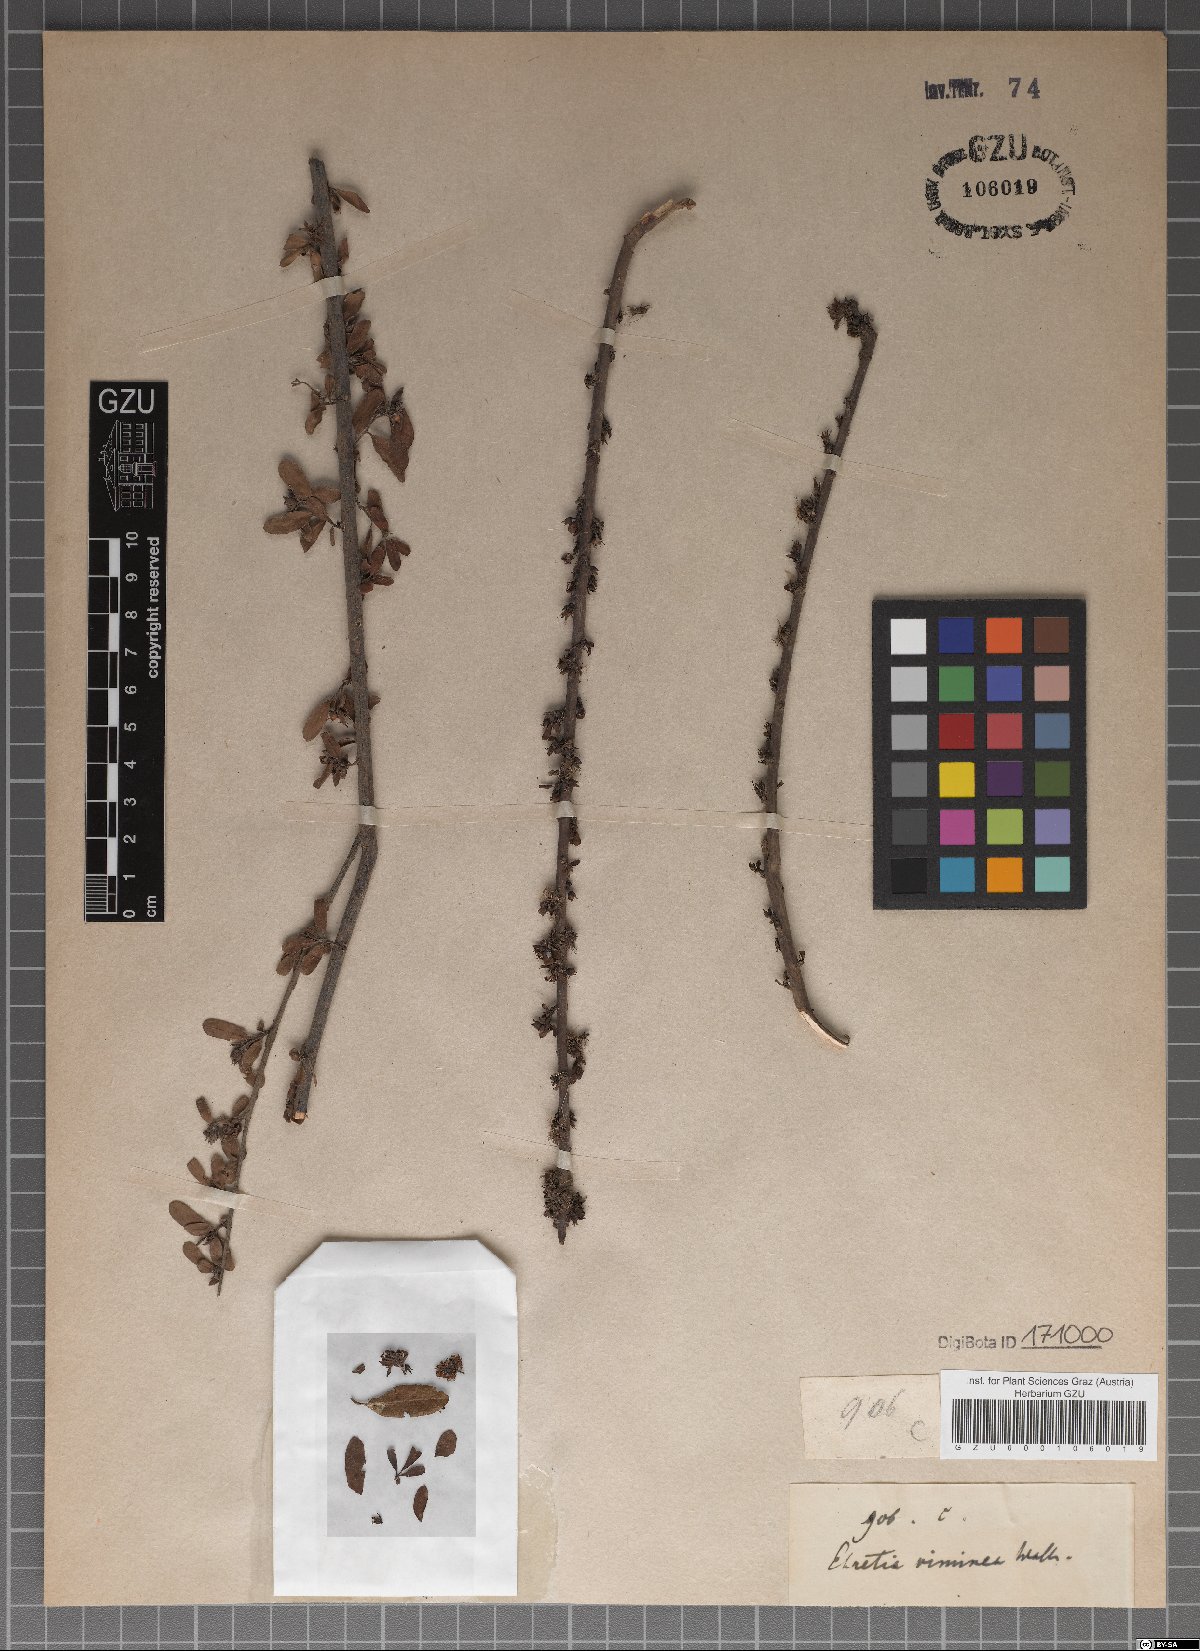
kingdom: Plantae
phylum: Tracheophyta
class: Magnoliopsida
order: Boraginales
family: Ehretiaceae
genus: Ehretia
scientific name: Ehretia aquatica
